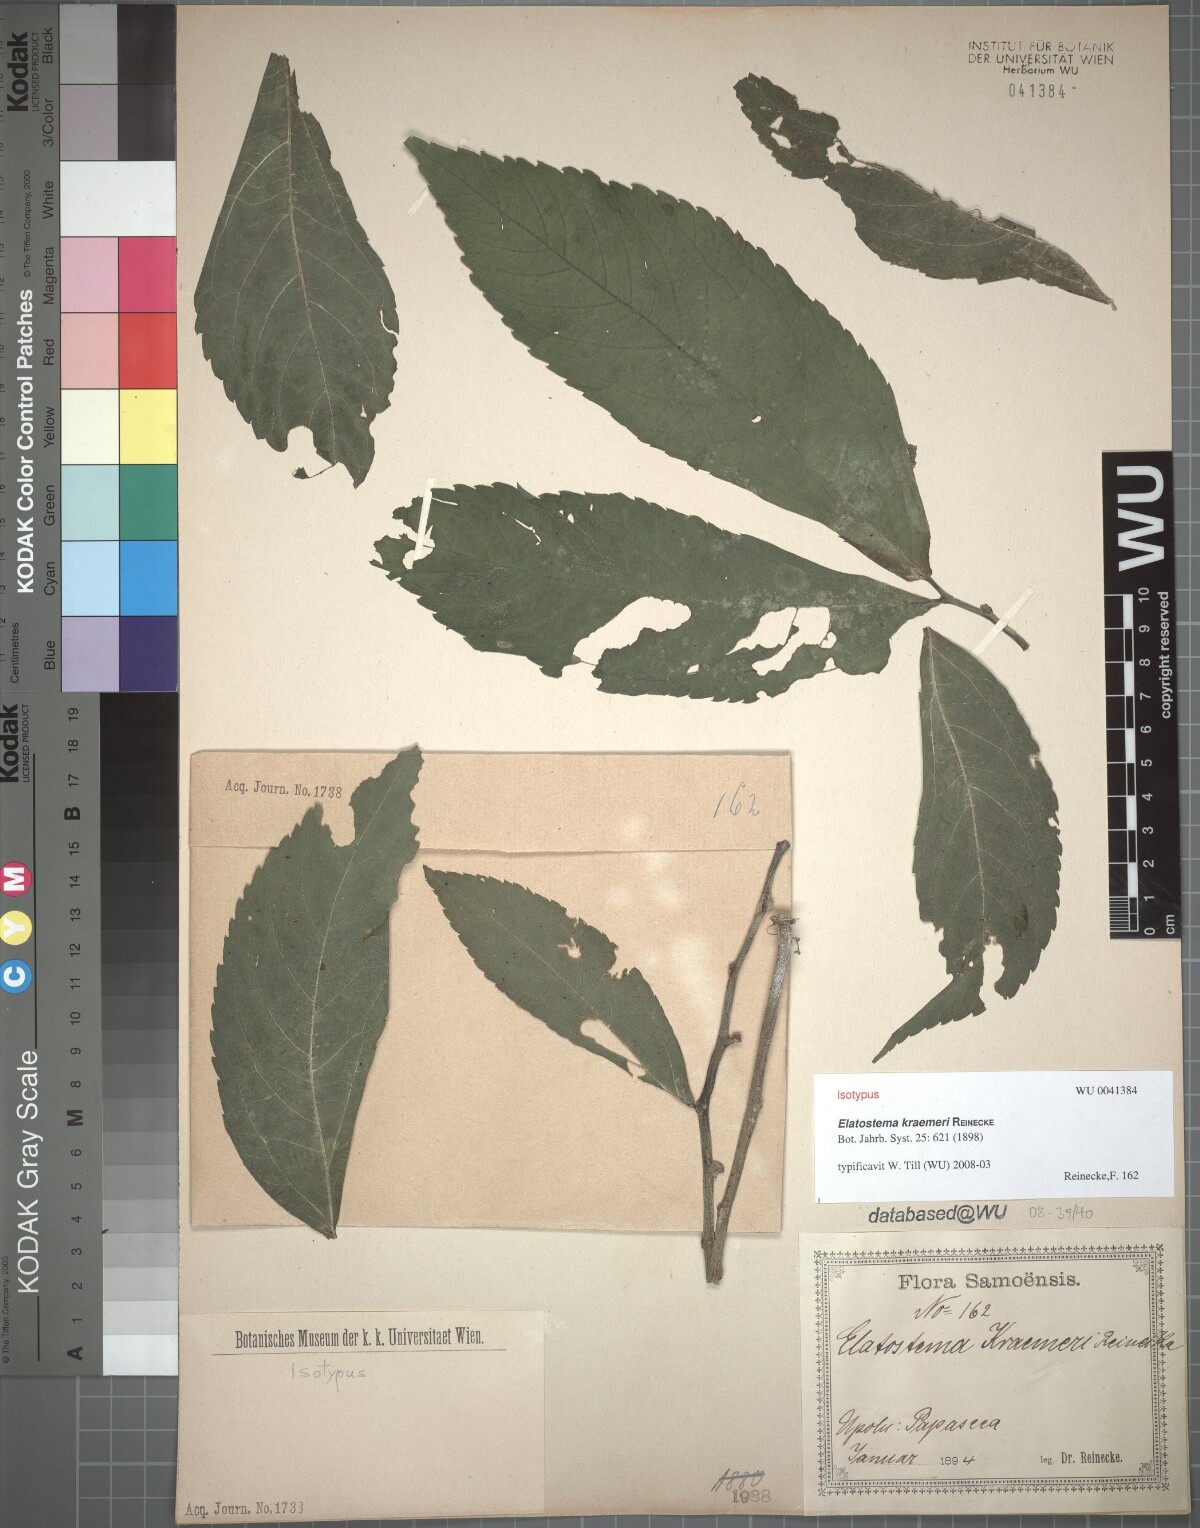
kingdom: Plantae
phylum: Tracheophyta
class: Magnoliopsida
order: Rosales
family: Urticaceae
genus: Elatostema
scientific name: Elatostema kraemeri
